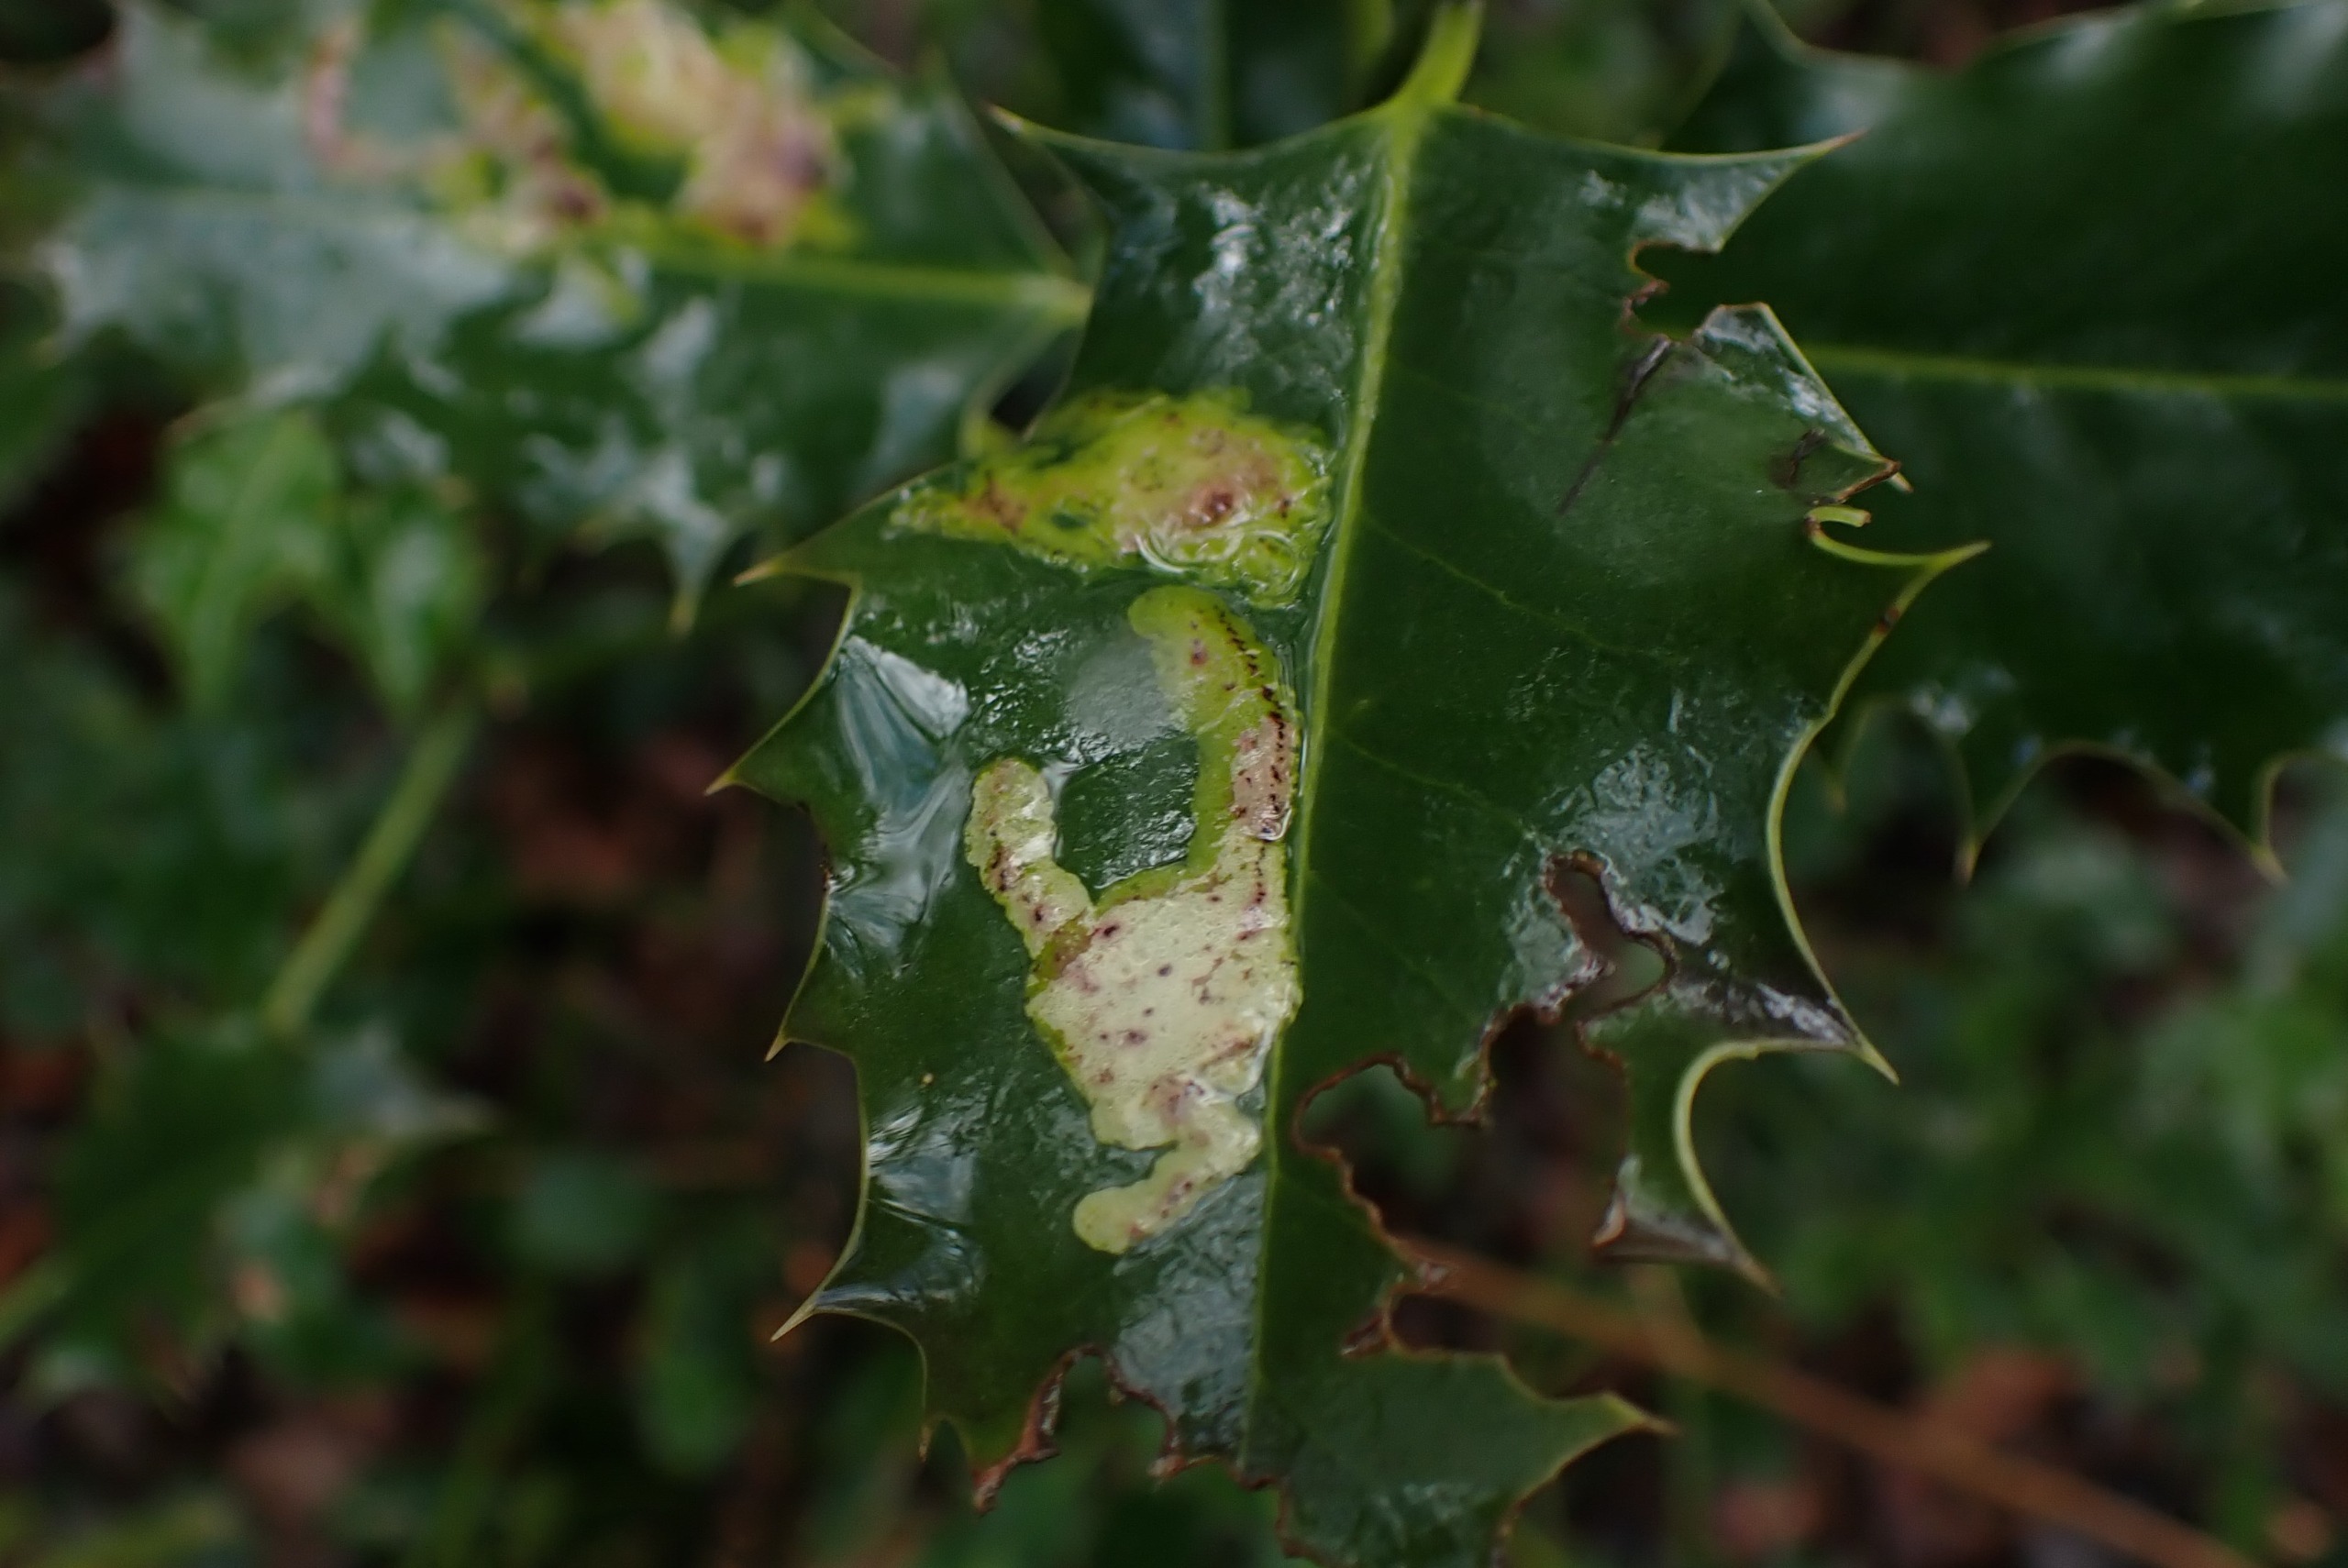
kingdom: Animalia
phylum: Arthropoda
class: Insecta
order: Diptera
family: Agromyzidae
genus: Phytomyza
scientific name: Phytomyza ilicis
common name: Kristtornminérflue
